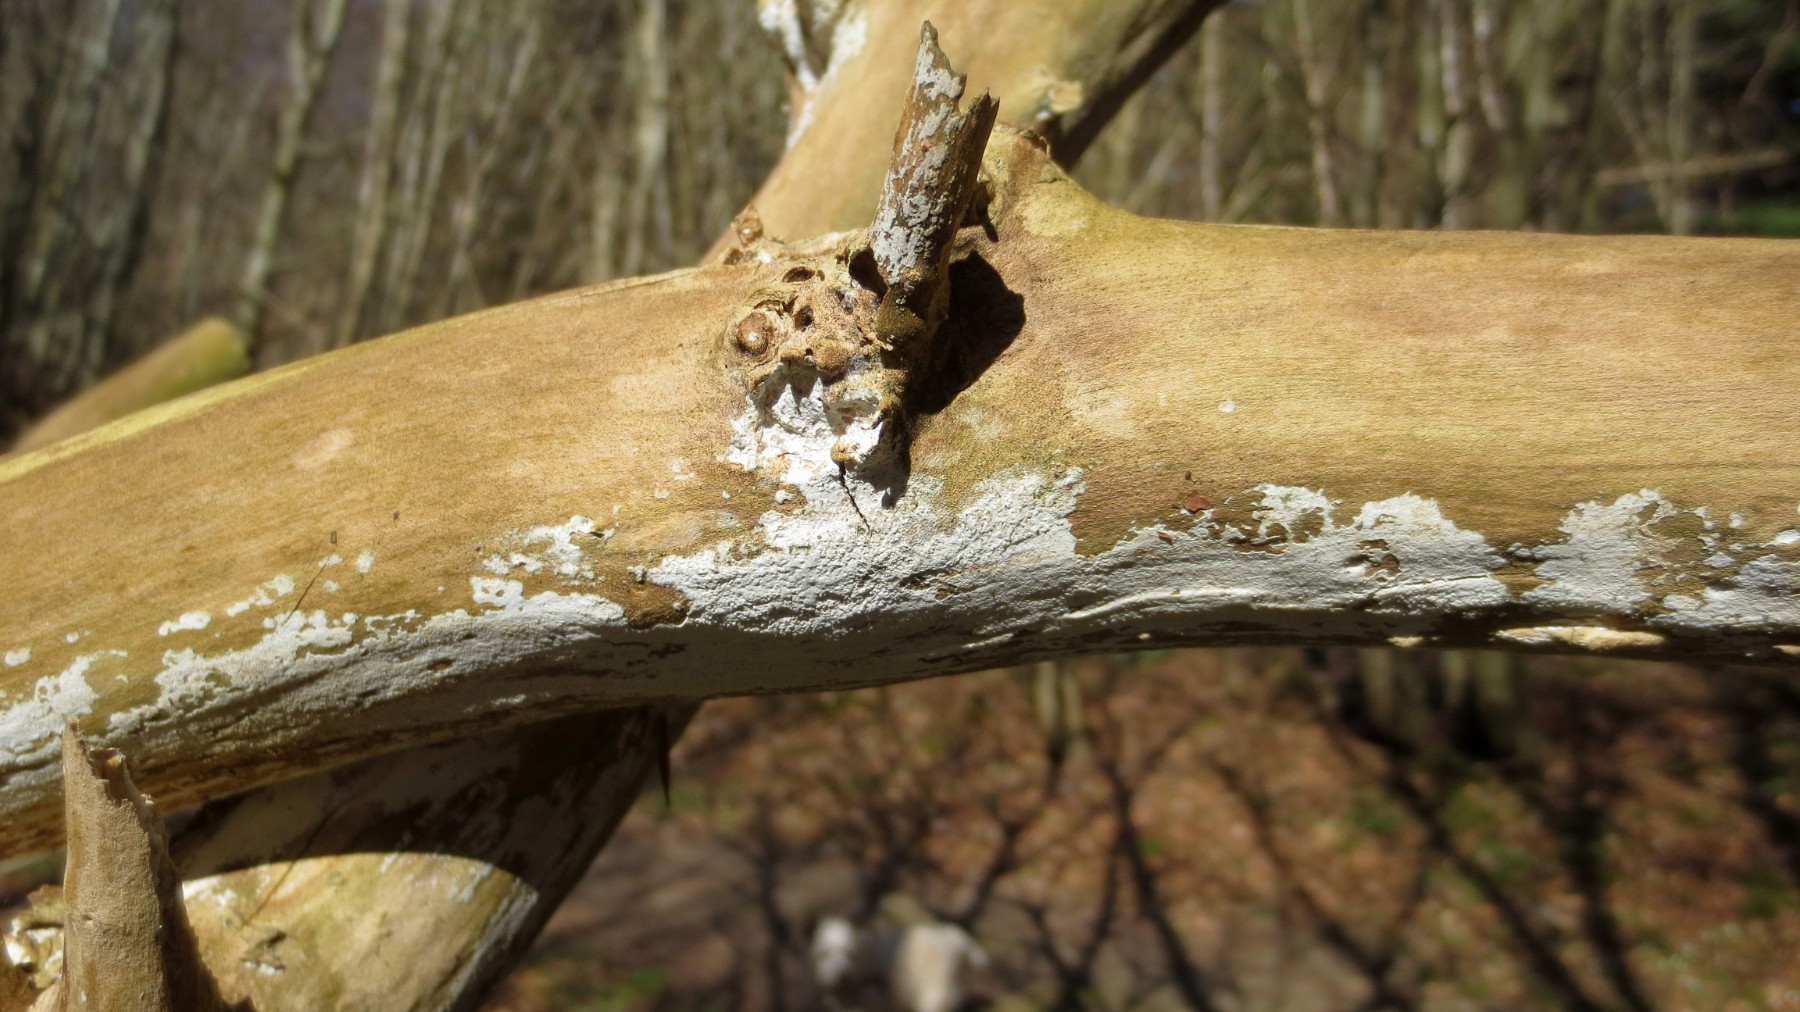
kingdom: Fungi
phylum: Basidiomycota
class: Agaricomycetes
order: Corticiales
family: Corticiaceae
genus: Lyomyces
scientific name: Lyomyces sambuci
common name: almindelig hyldehinde
